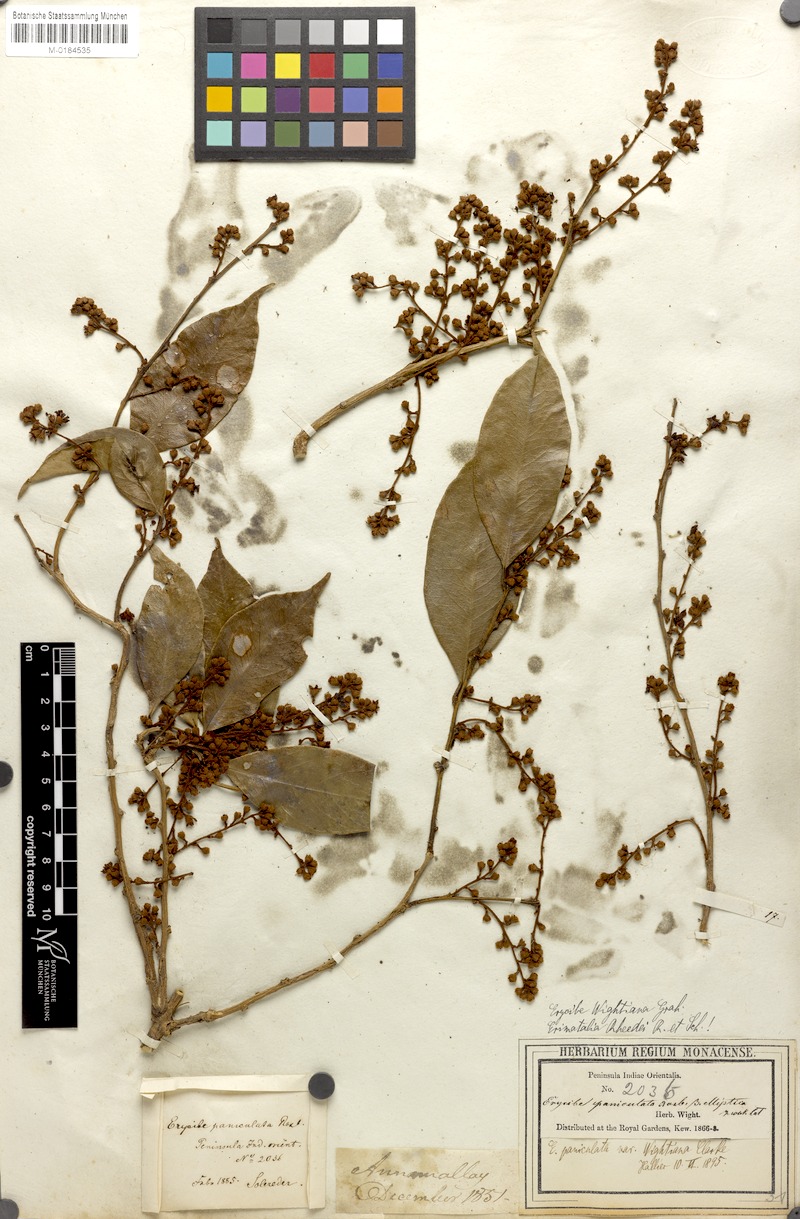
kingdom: Plantae
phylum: Tracheophyta
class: Magnoliopsida
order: Solanales
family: Convolvulaceae
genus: Erycibe
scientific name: Erycibe paniculata
